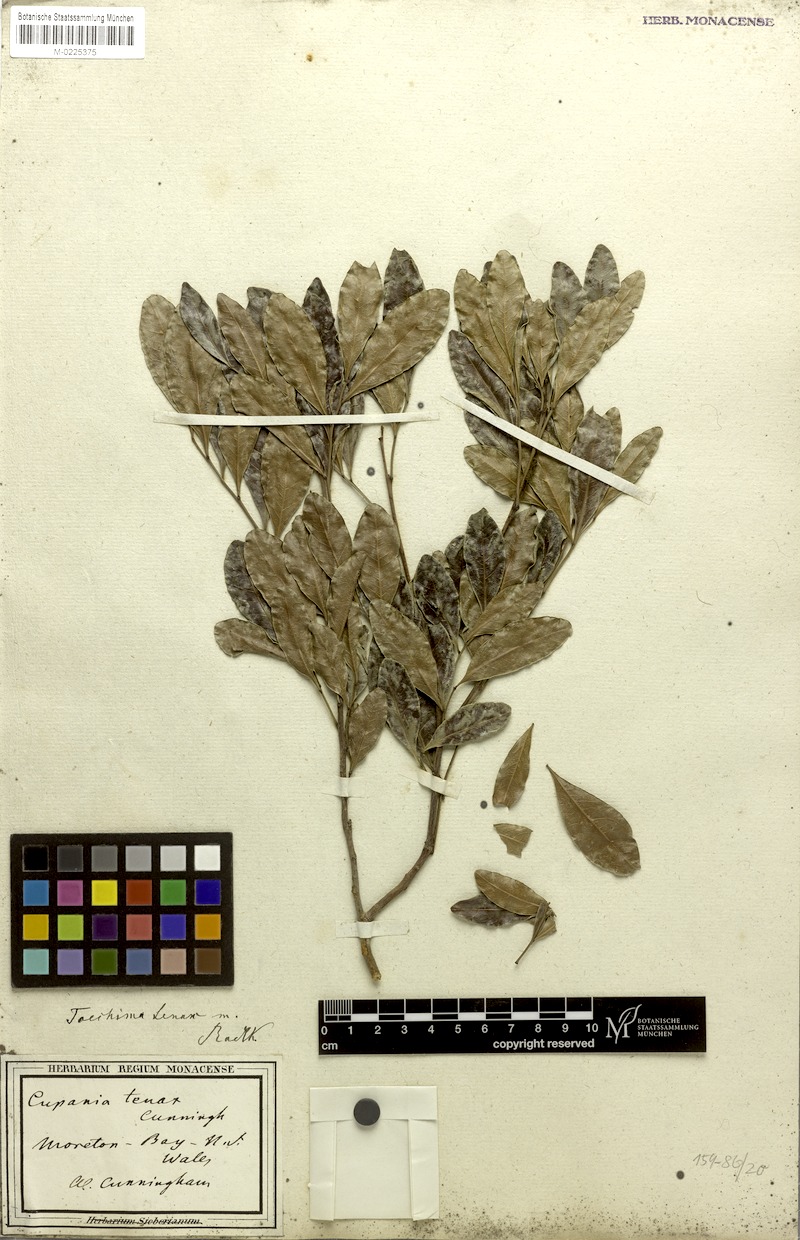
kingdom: Plantae
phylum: Tracheophyta
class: Magnoliopsida
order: Sapindales
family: Sapindaceae
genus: Toechima
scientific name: Toechima tenax
